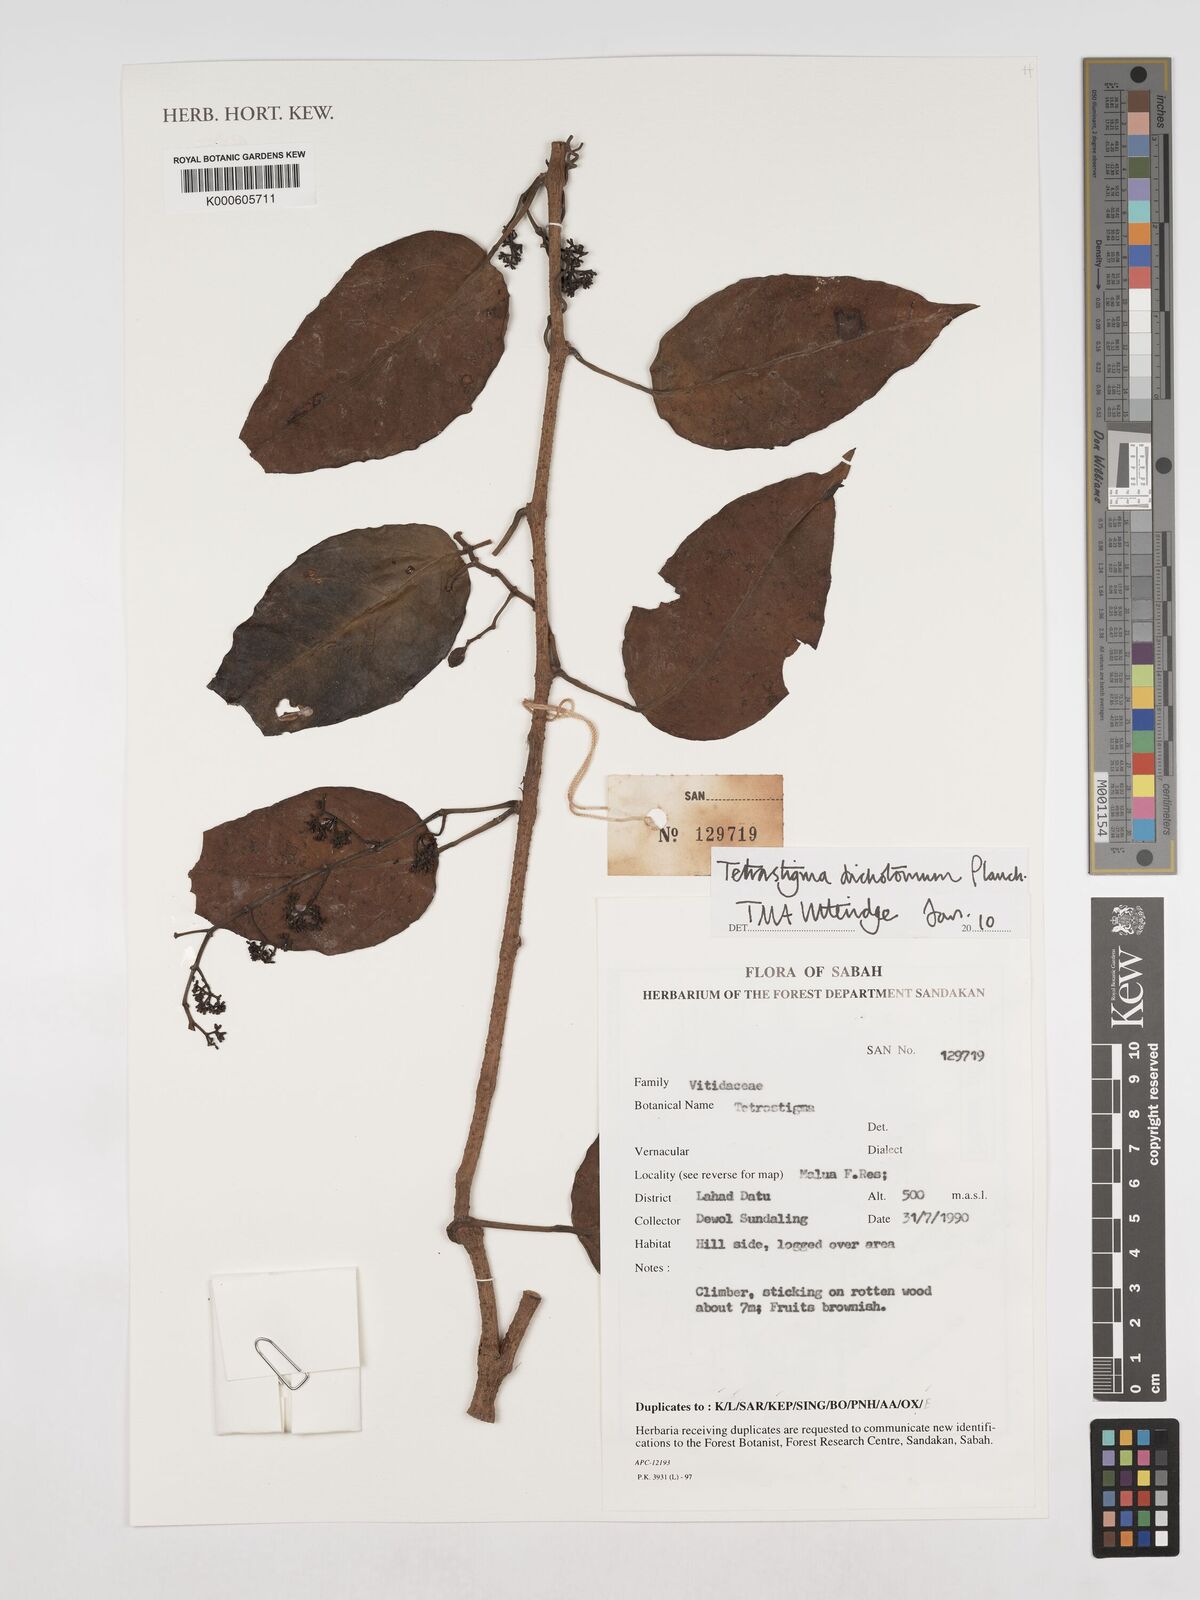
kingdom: Plantae
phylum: Tracheophyta
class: Magnoliopsida
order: Vitales
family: Vitaceae
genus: Tetrastigma
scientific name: Tetrastigma dichotomum
